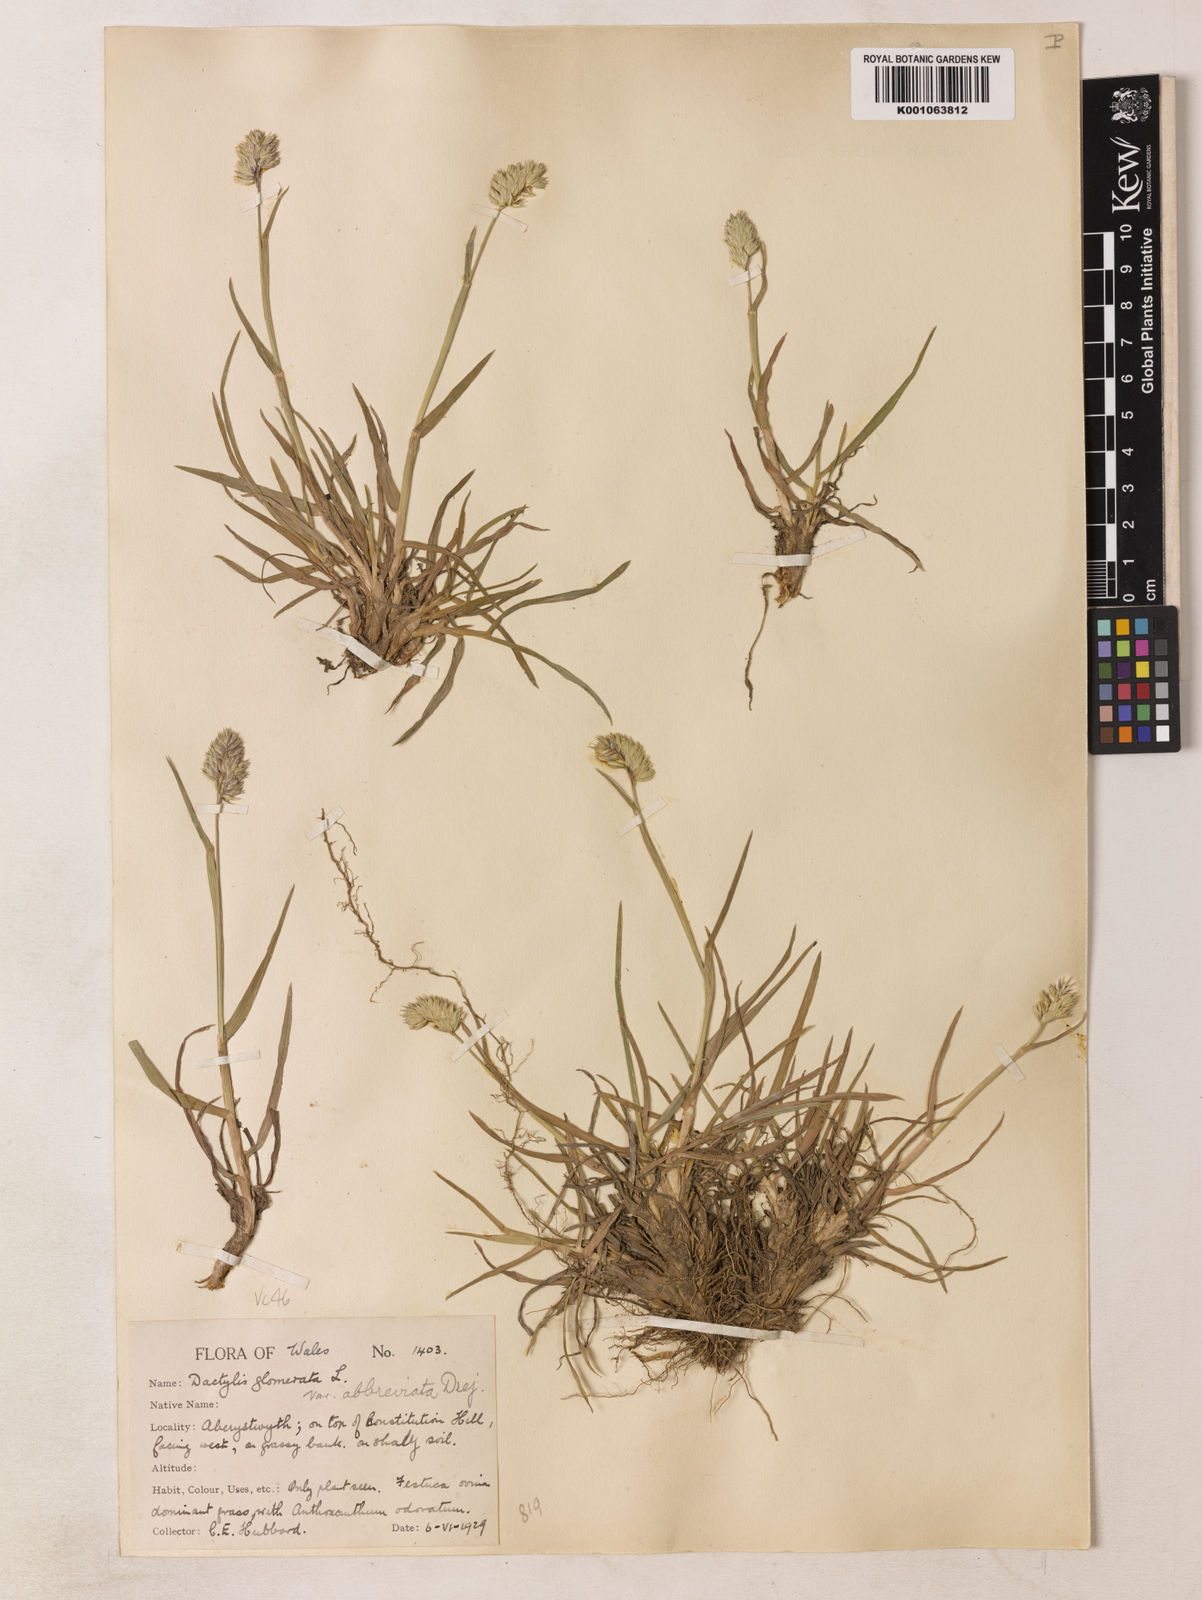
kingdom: Plantae
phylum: Tracheophyta
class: Liliopsida
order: Poales
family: Poaceae
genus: Dactylis
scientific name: Dactylis glomerata
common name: Orchardgrass
